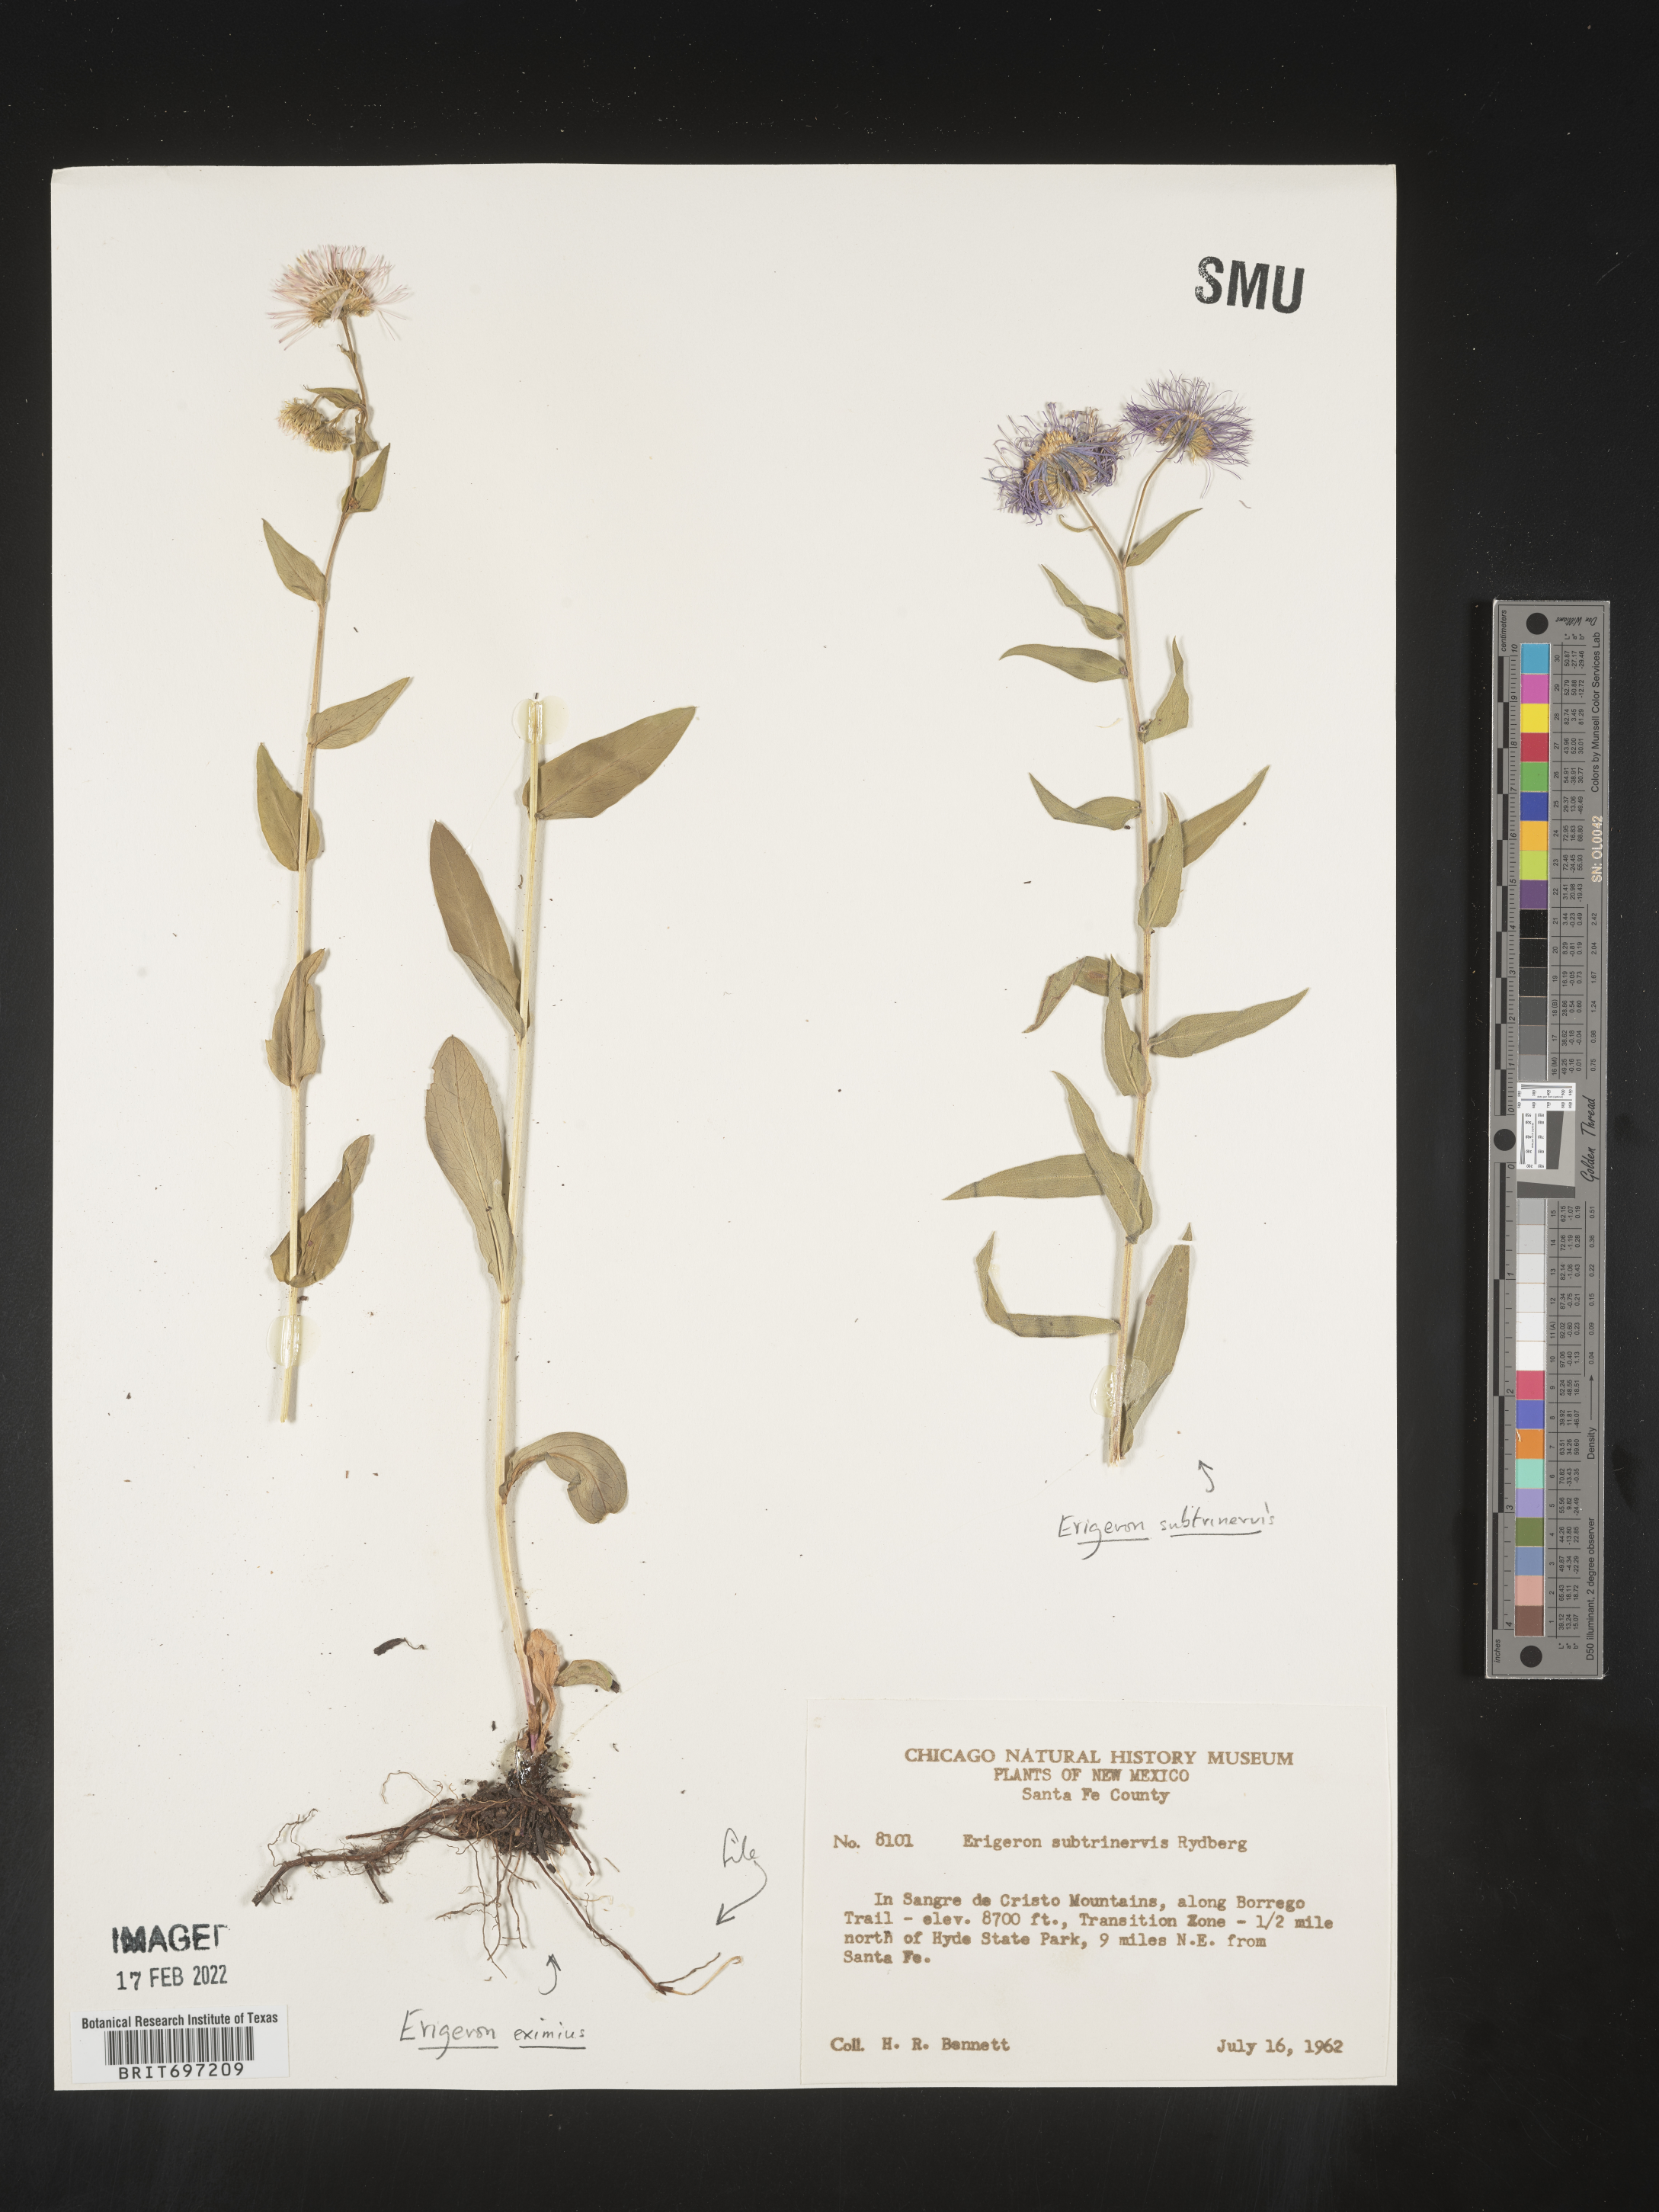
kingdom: Plantae
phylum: Tracheophyta
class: Magnoliopsida
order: Asterales
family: Asteraceae
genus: Erigeron
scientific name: Erigeron eximius
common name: Spruce-fir fleabane
